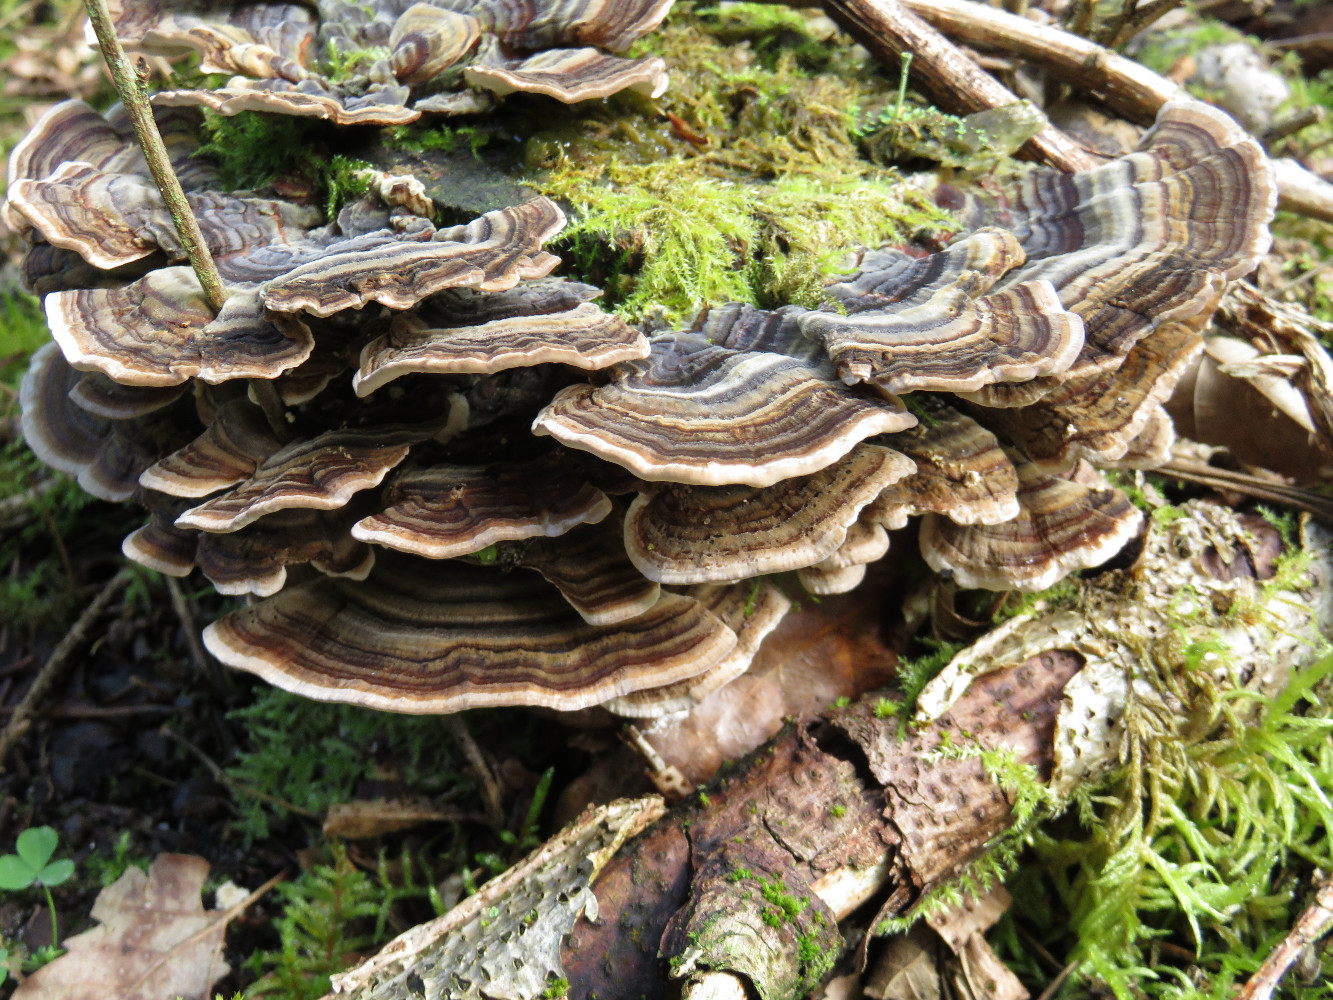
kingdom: Fungi
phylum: Basidiomycota
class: Agaricomycetes
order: Polyporales
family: Polyporaceae
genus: Trametes
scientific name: Trametes versicolor
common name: broget læderporesvamp
